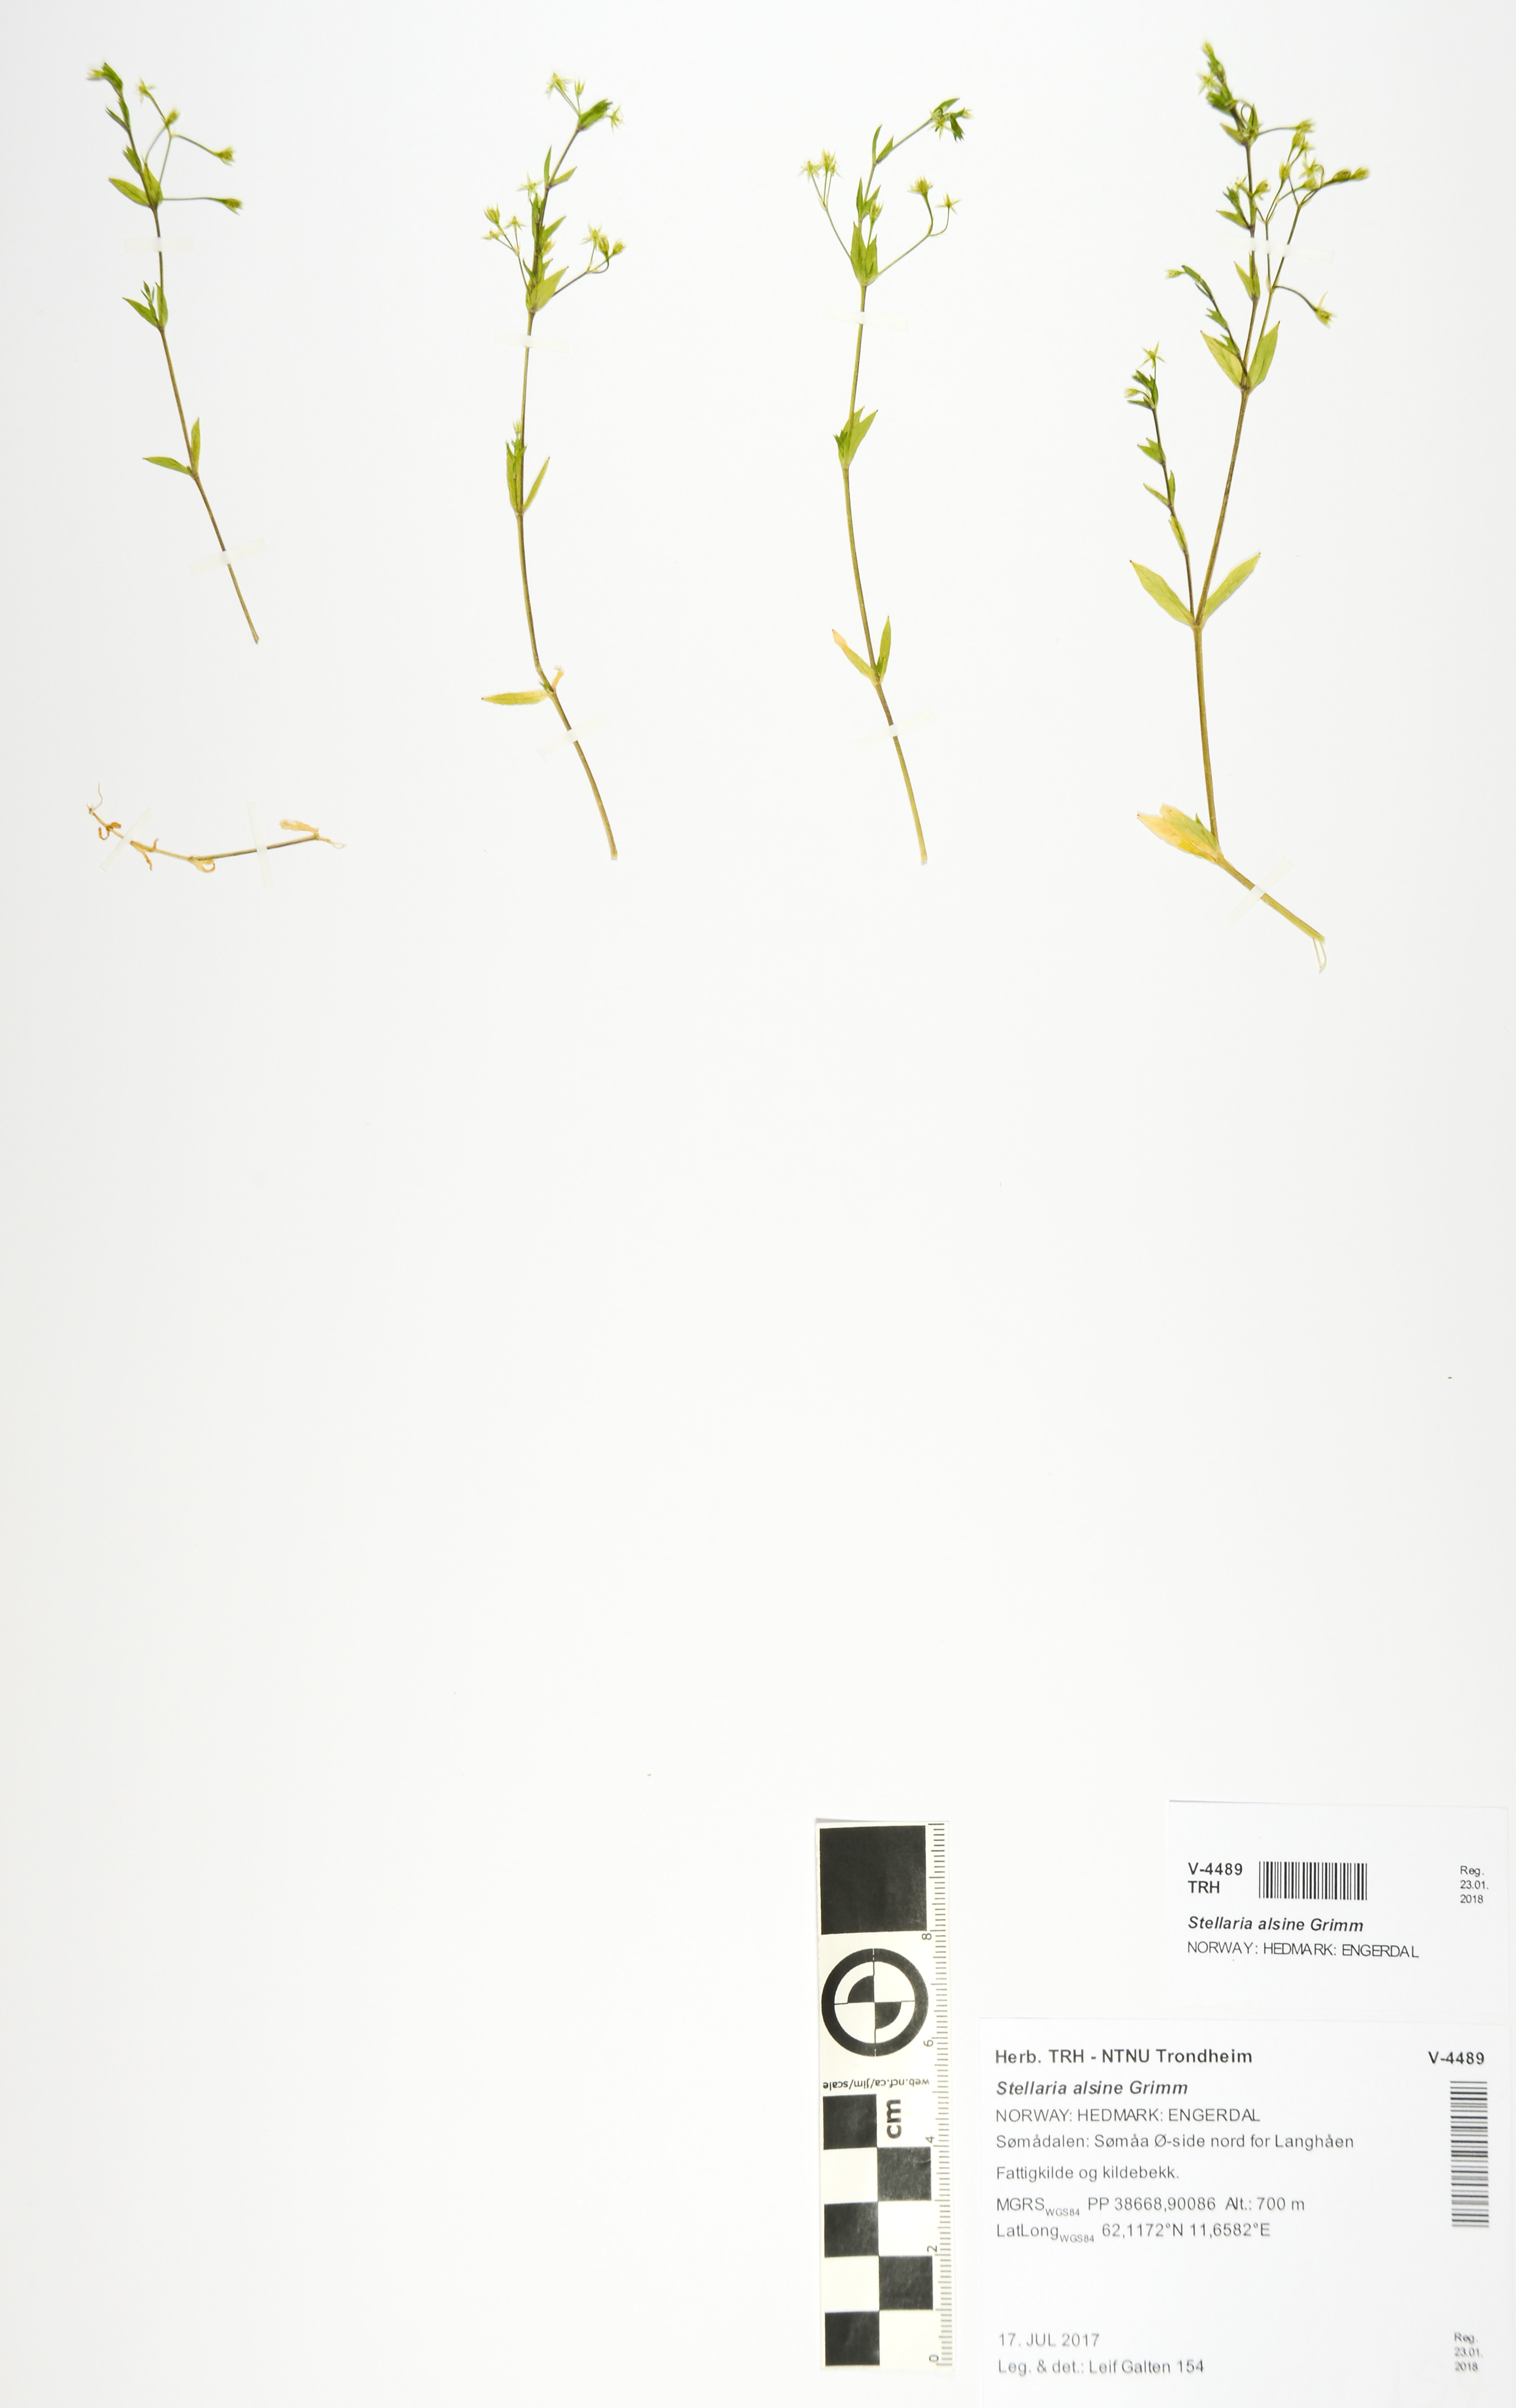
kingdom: Plantae
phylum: Tracheophyta
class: Magnoliopsida
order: Caryophyllales
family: Caryophyllaceae
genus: Stellaria
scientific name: Stellaria alsine
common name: Bog stitchwort
